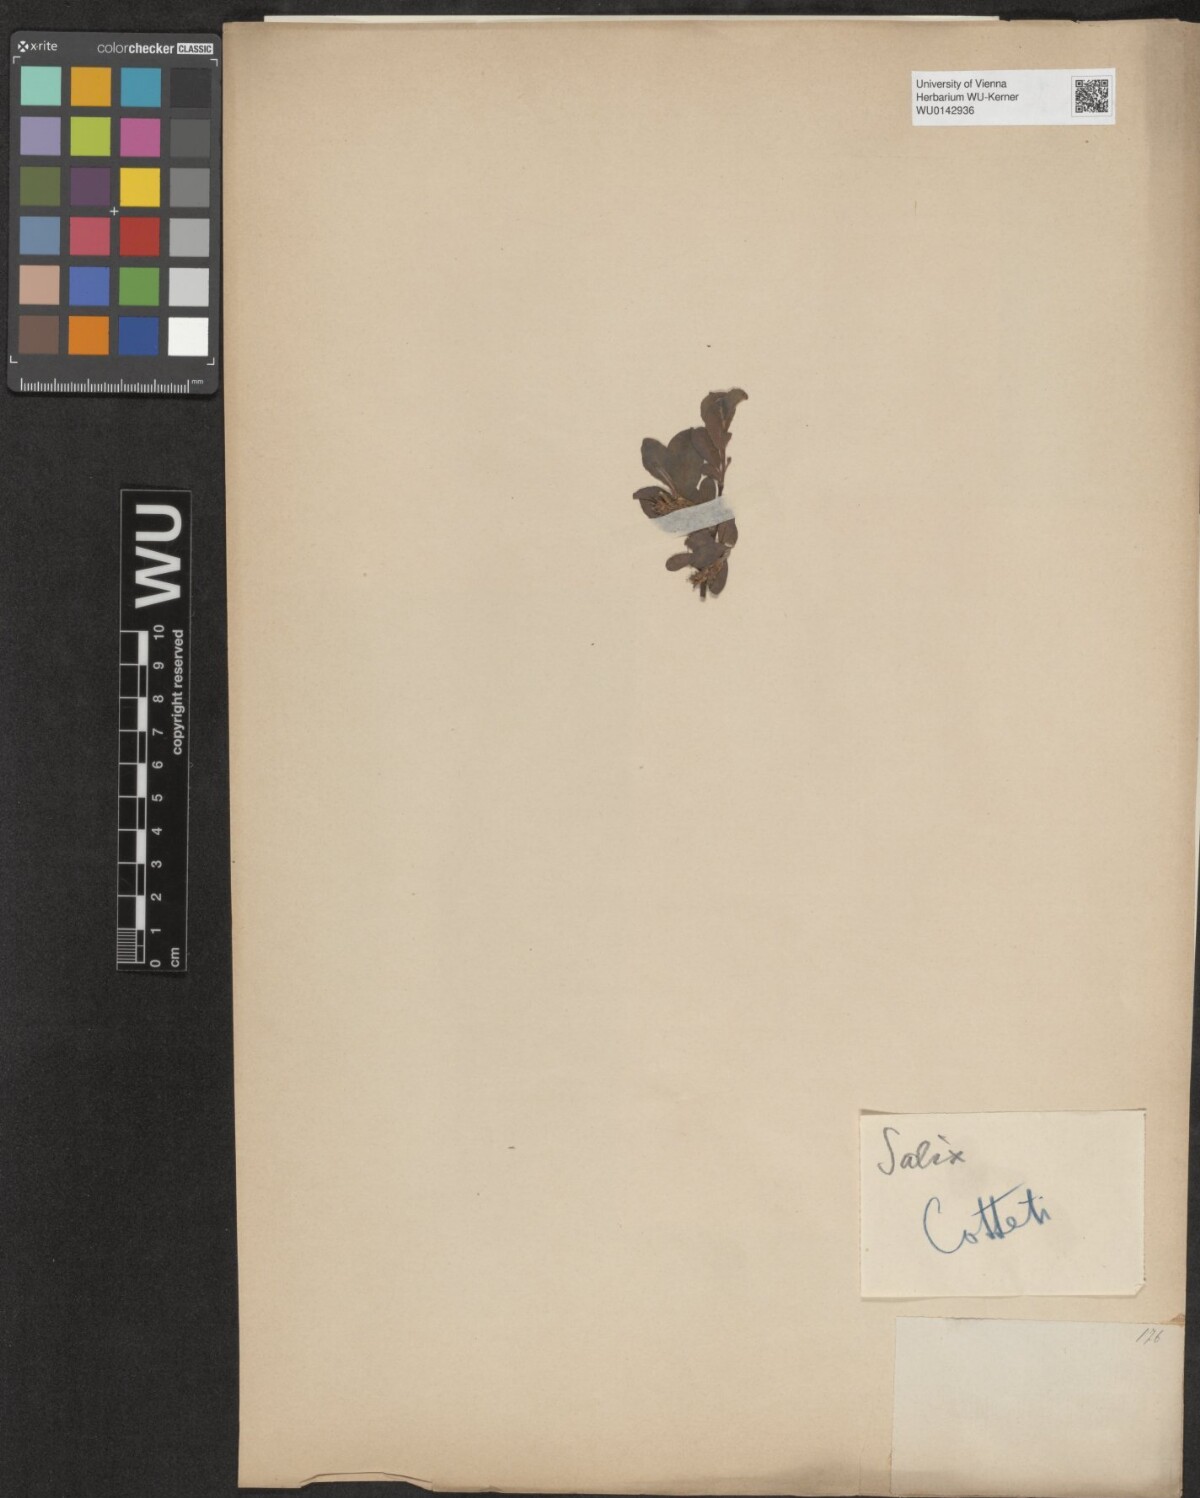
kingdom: Plantae
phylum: Tracheophyta
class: Magnoliopsida
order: Malpighiales
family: Salicaceae
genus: Salix
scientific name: Salix myrsinifolia
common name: Dark-leaved willow
